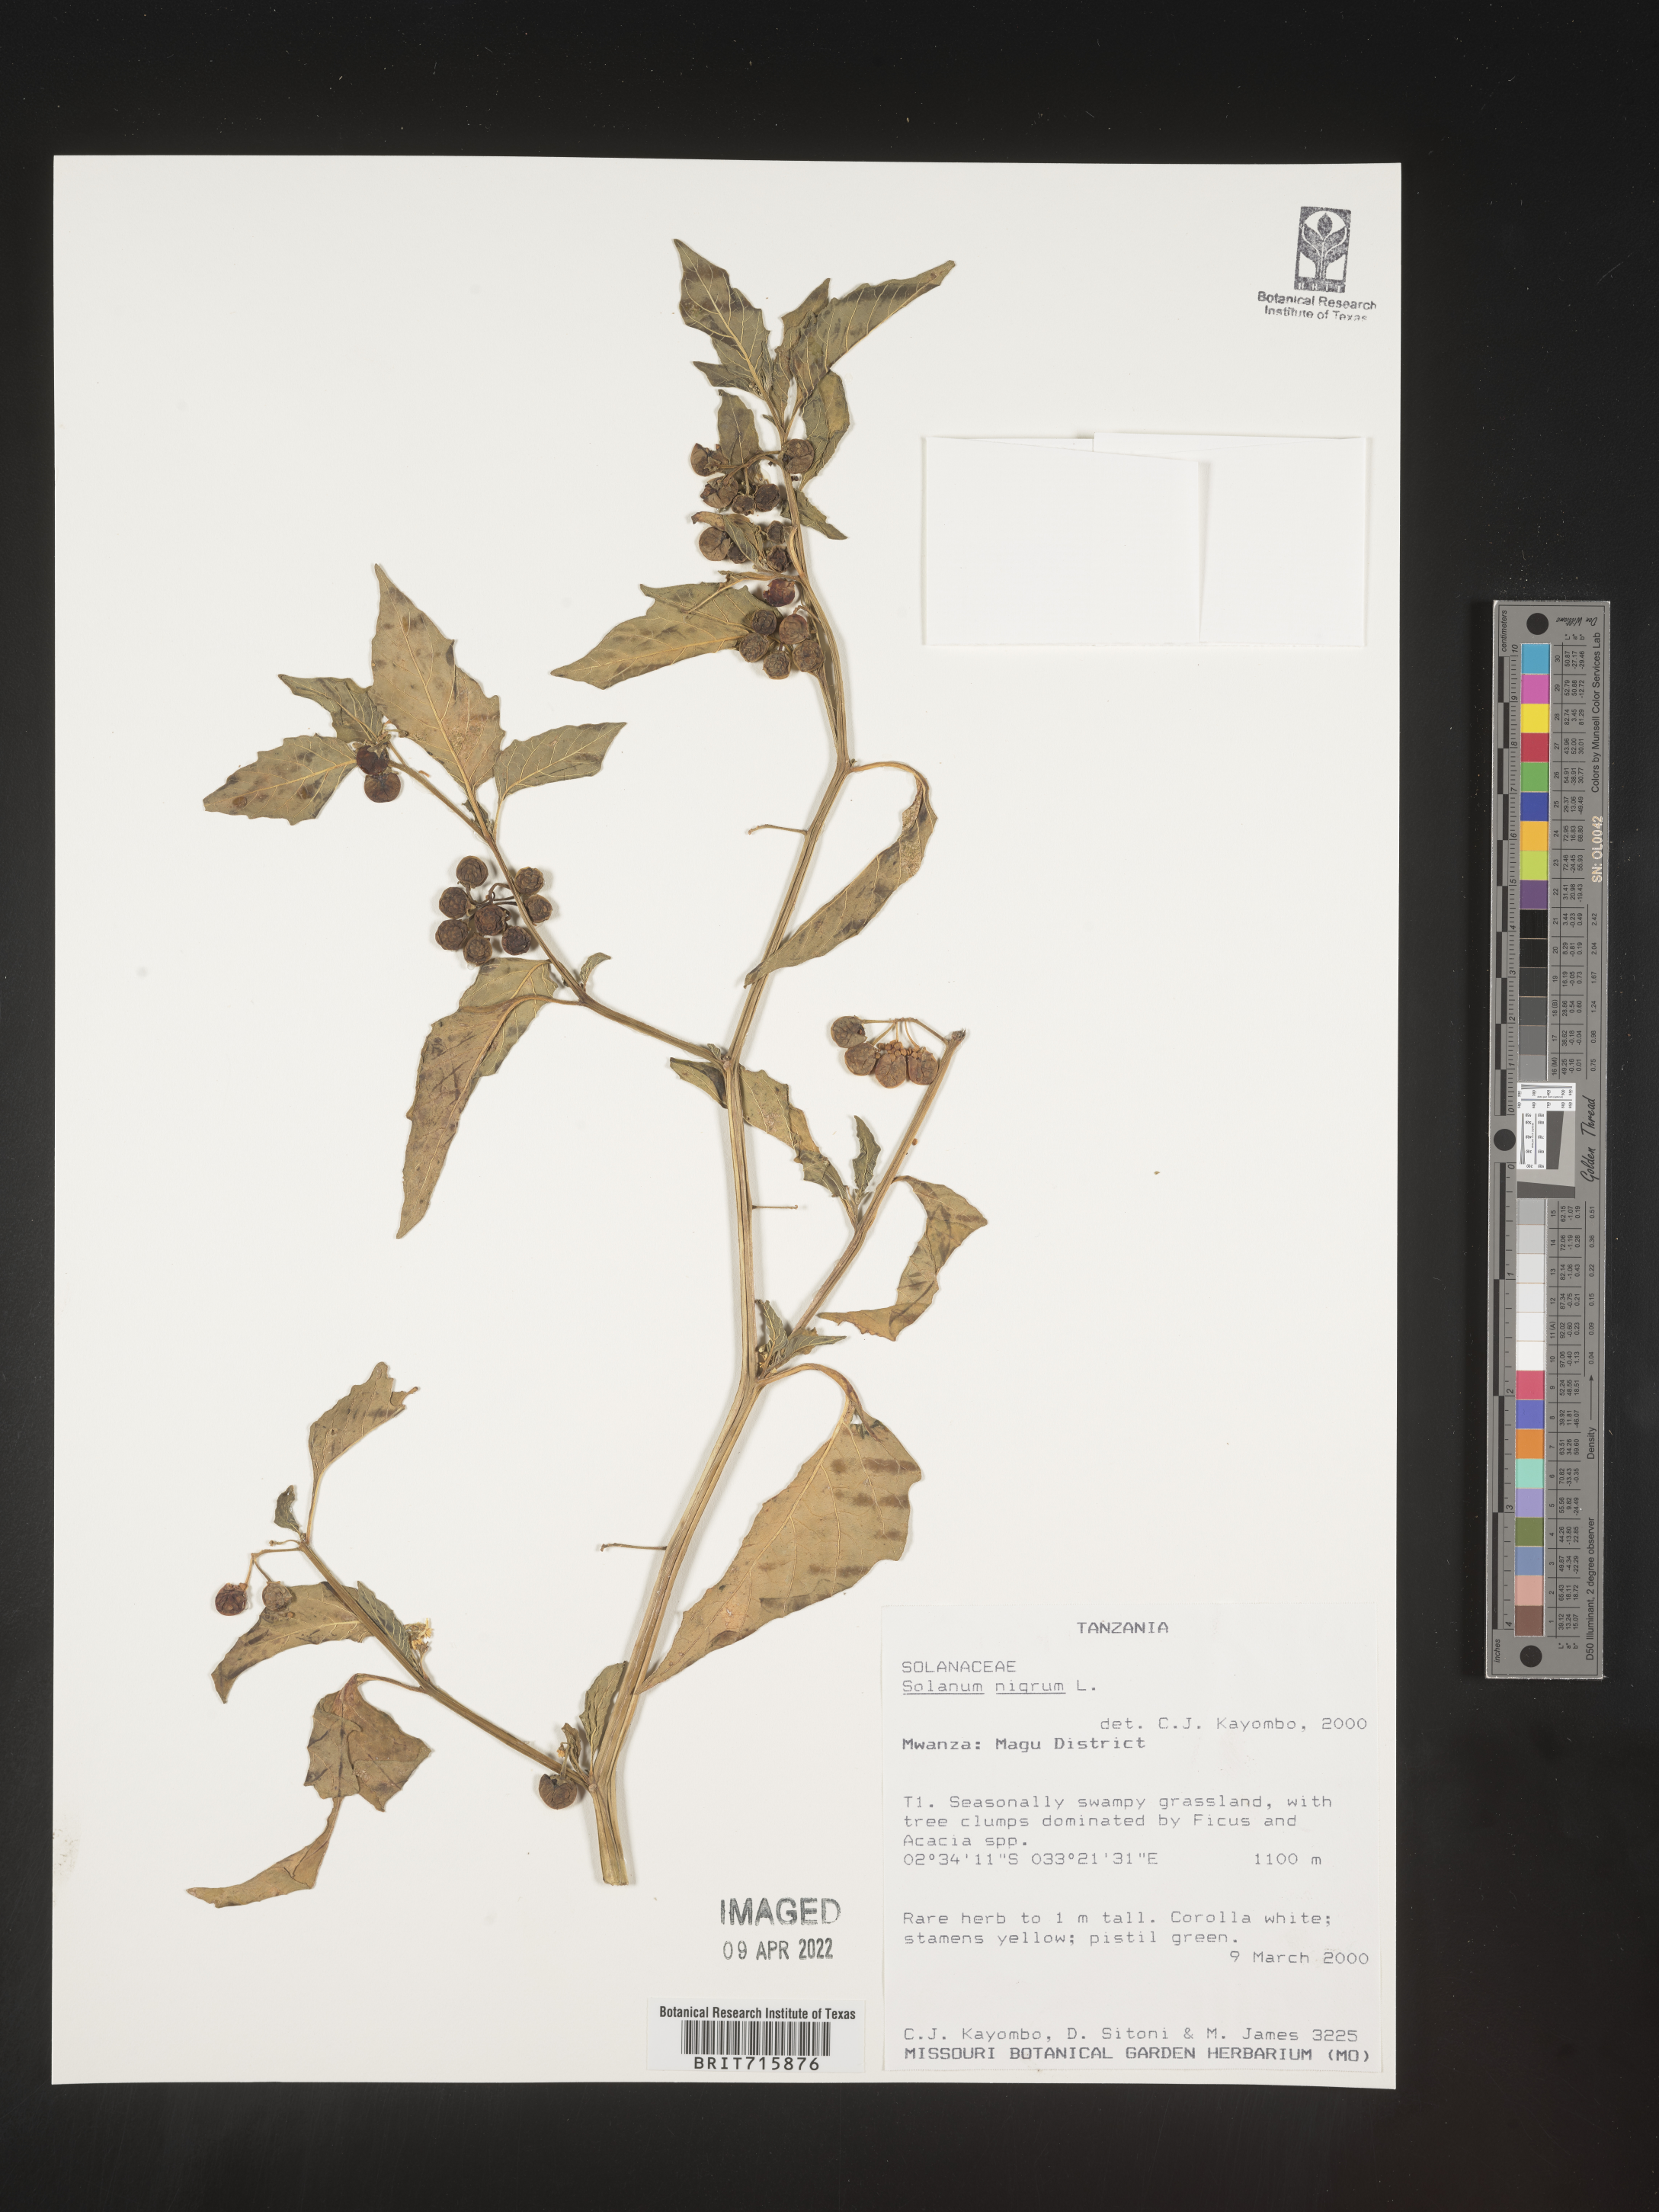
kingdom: Plantae
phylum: Tracheophyta
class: Magnoliopsida
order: Solanales
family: Solanaceae
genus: Solanum
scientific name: Solanum
